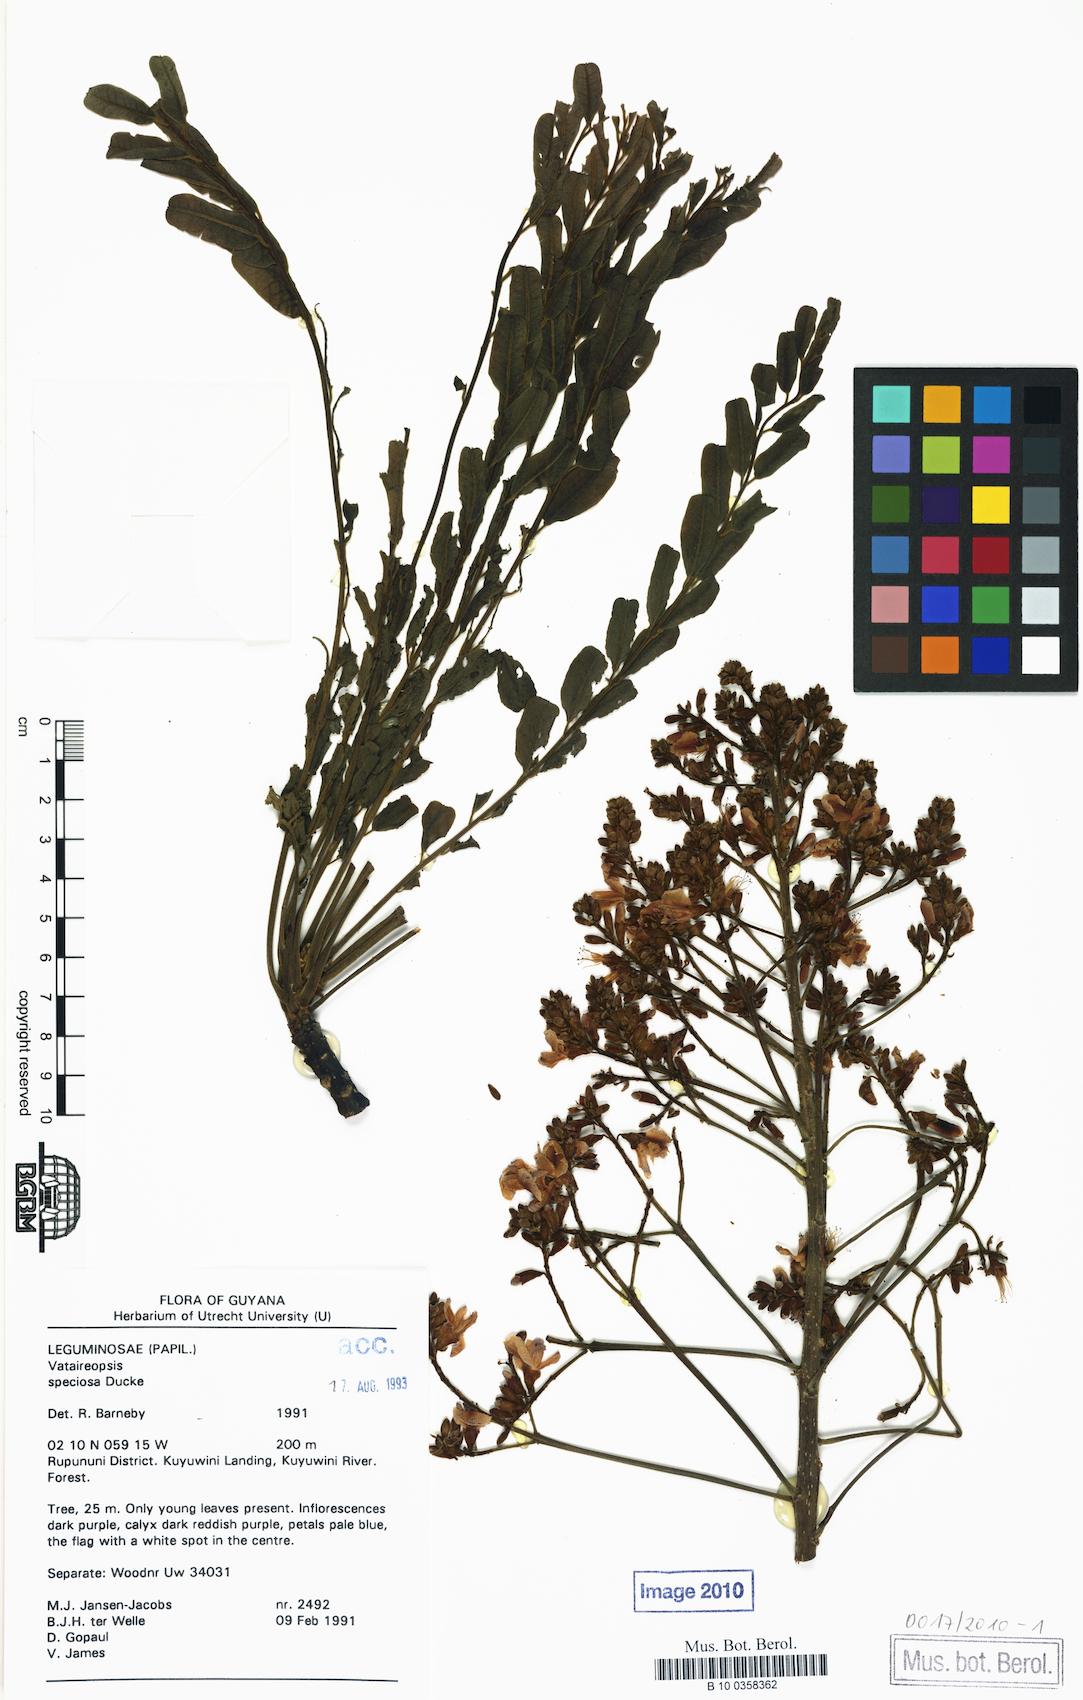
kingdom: Plantae
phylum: Tracheophyta
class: Magnoliopsida
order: Fabales
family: Fabaceae
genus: Vataireopsis
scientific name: Vataireopsis surinamensis
